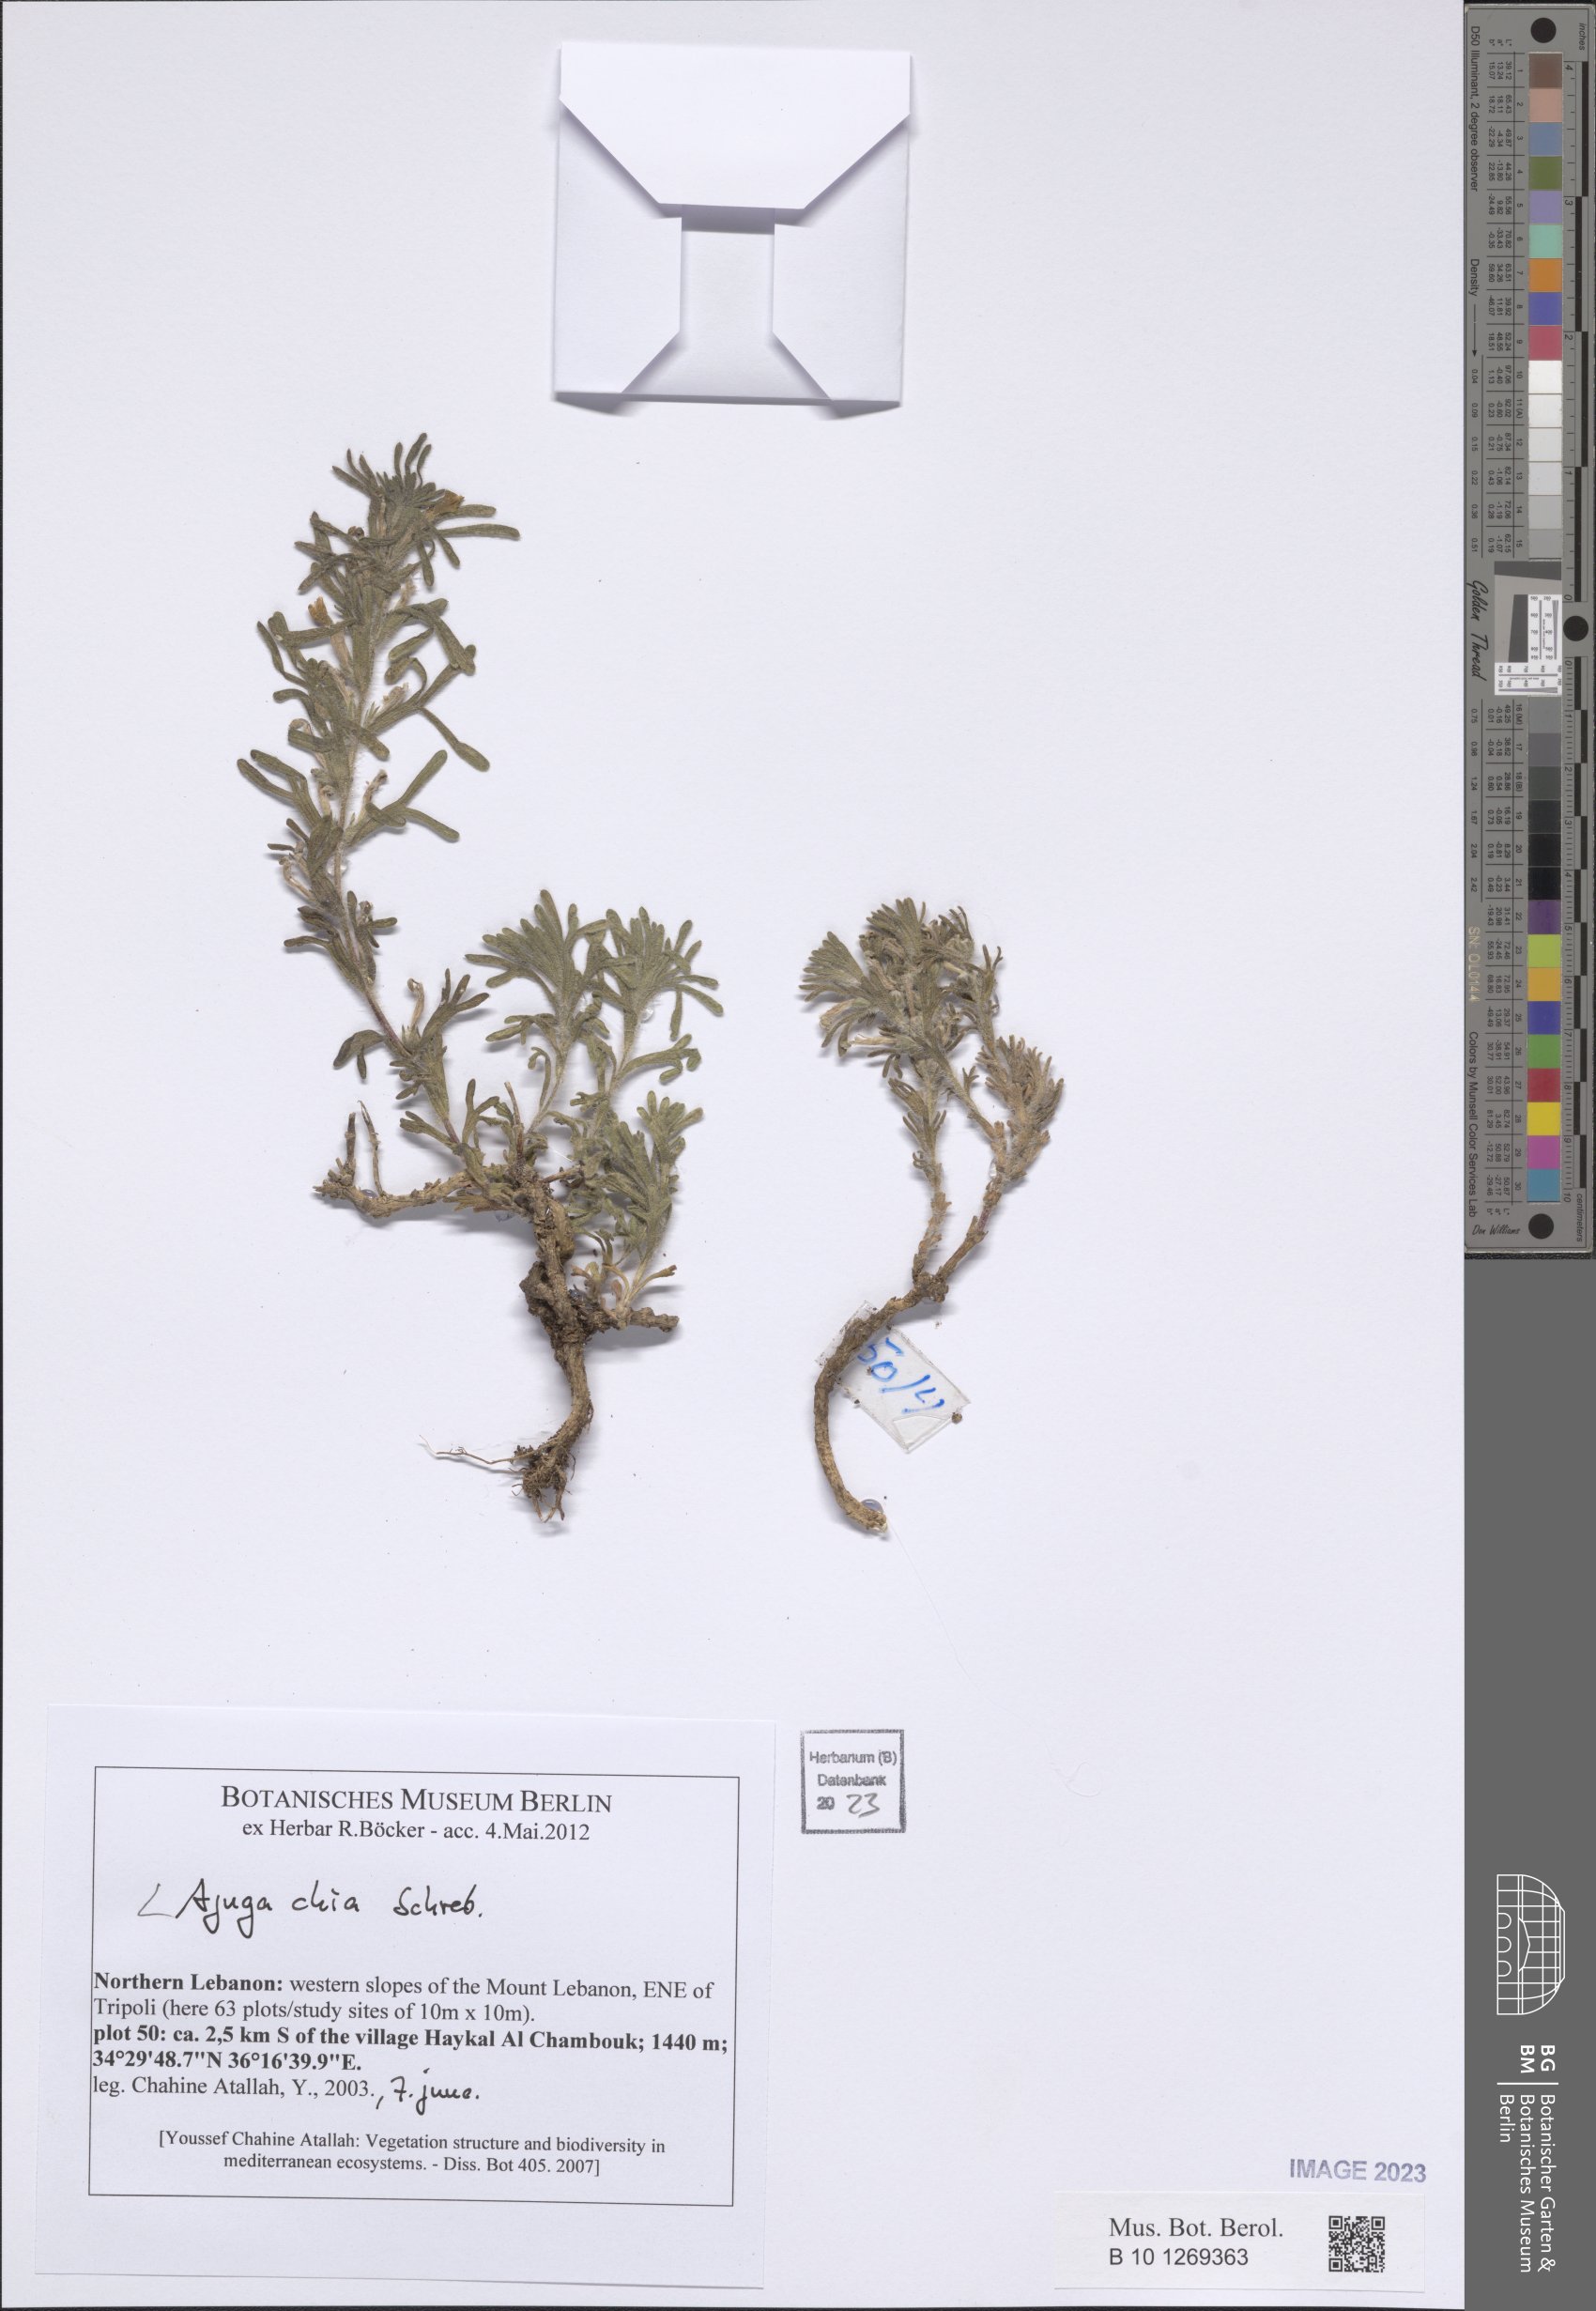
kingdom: Plantae
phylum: Tracheophyta
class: Magnoliopsida
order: Lamiales
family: Lamiaceae
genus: Ajuga
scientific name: Ajuga chamaepitys
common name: Ground-pine
